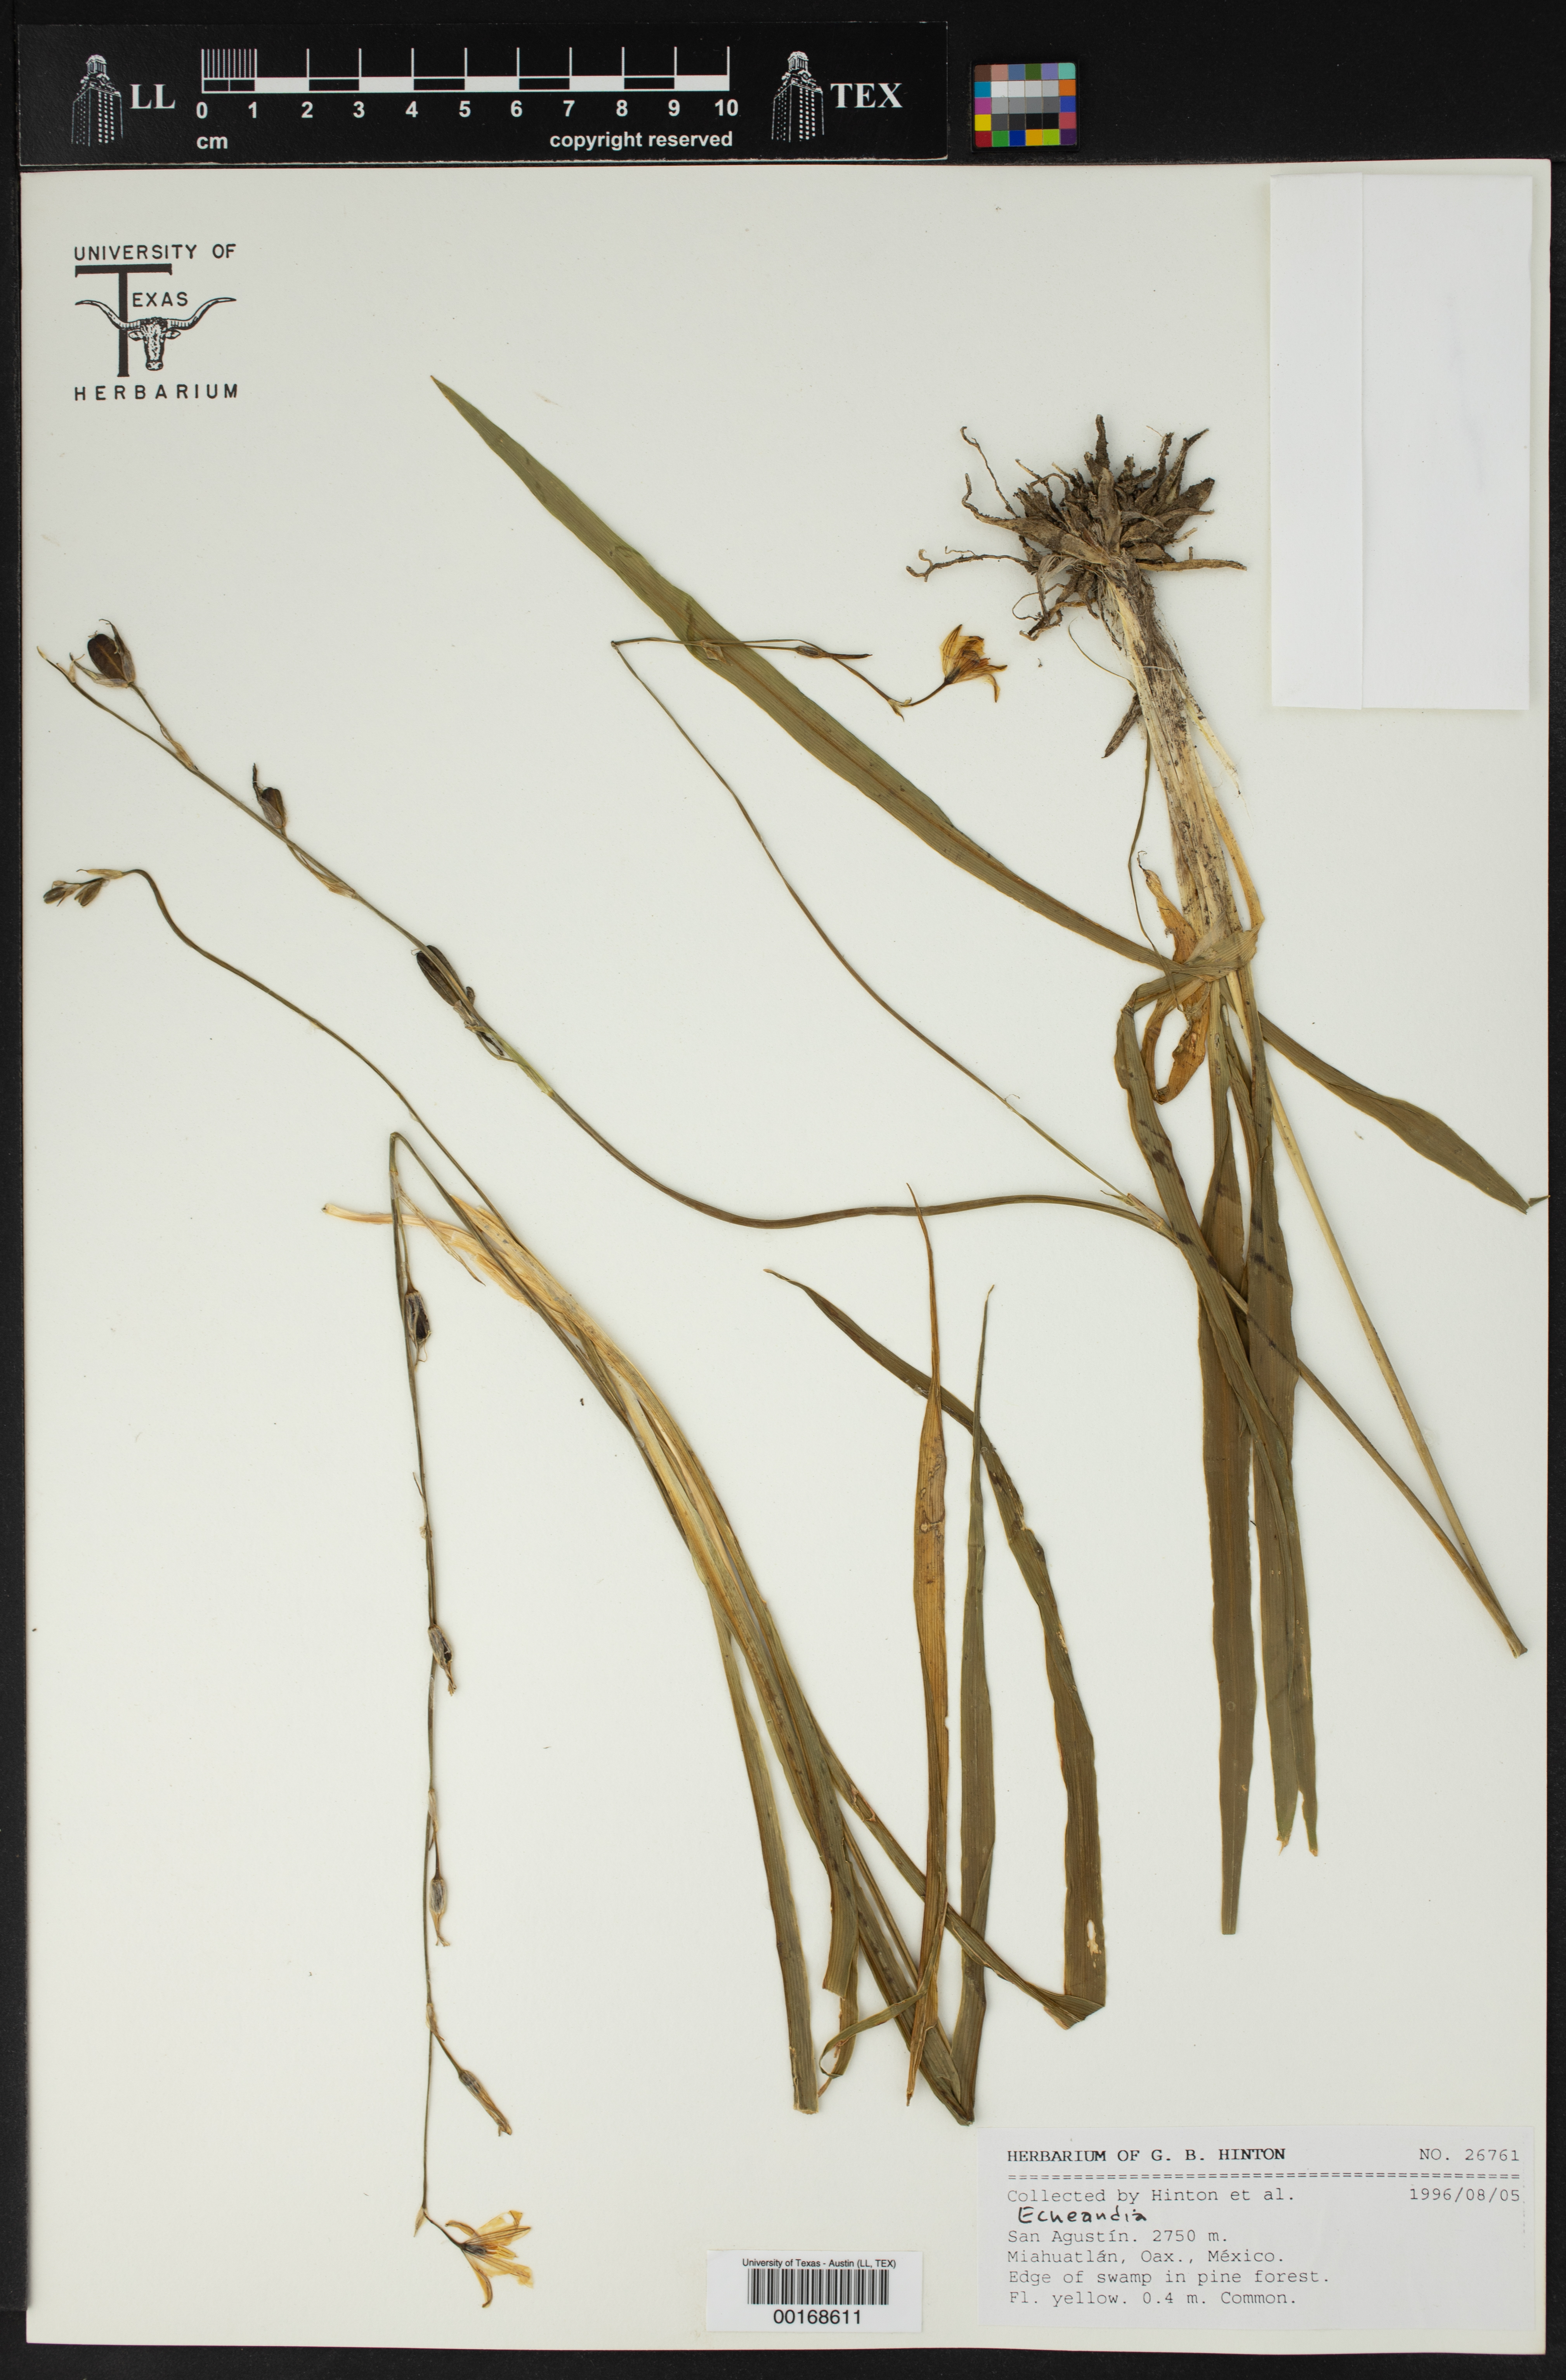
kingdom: Plantae
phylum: Tracheophyta
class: Liliopsida
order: Asparagales
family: Asparagaceae
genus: Echeandia
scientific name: Echeandia
